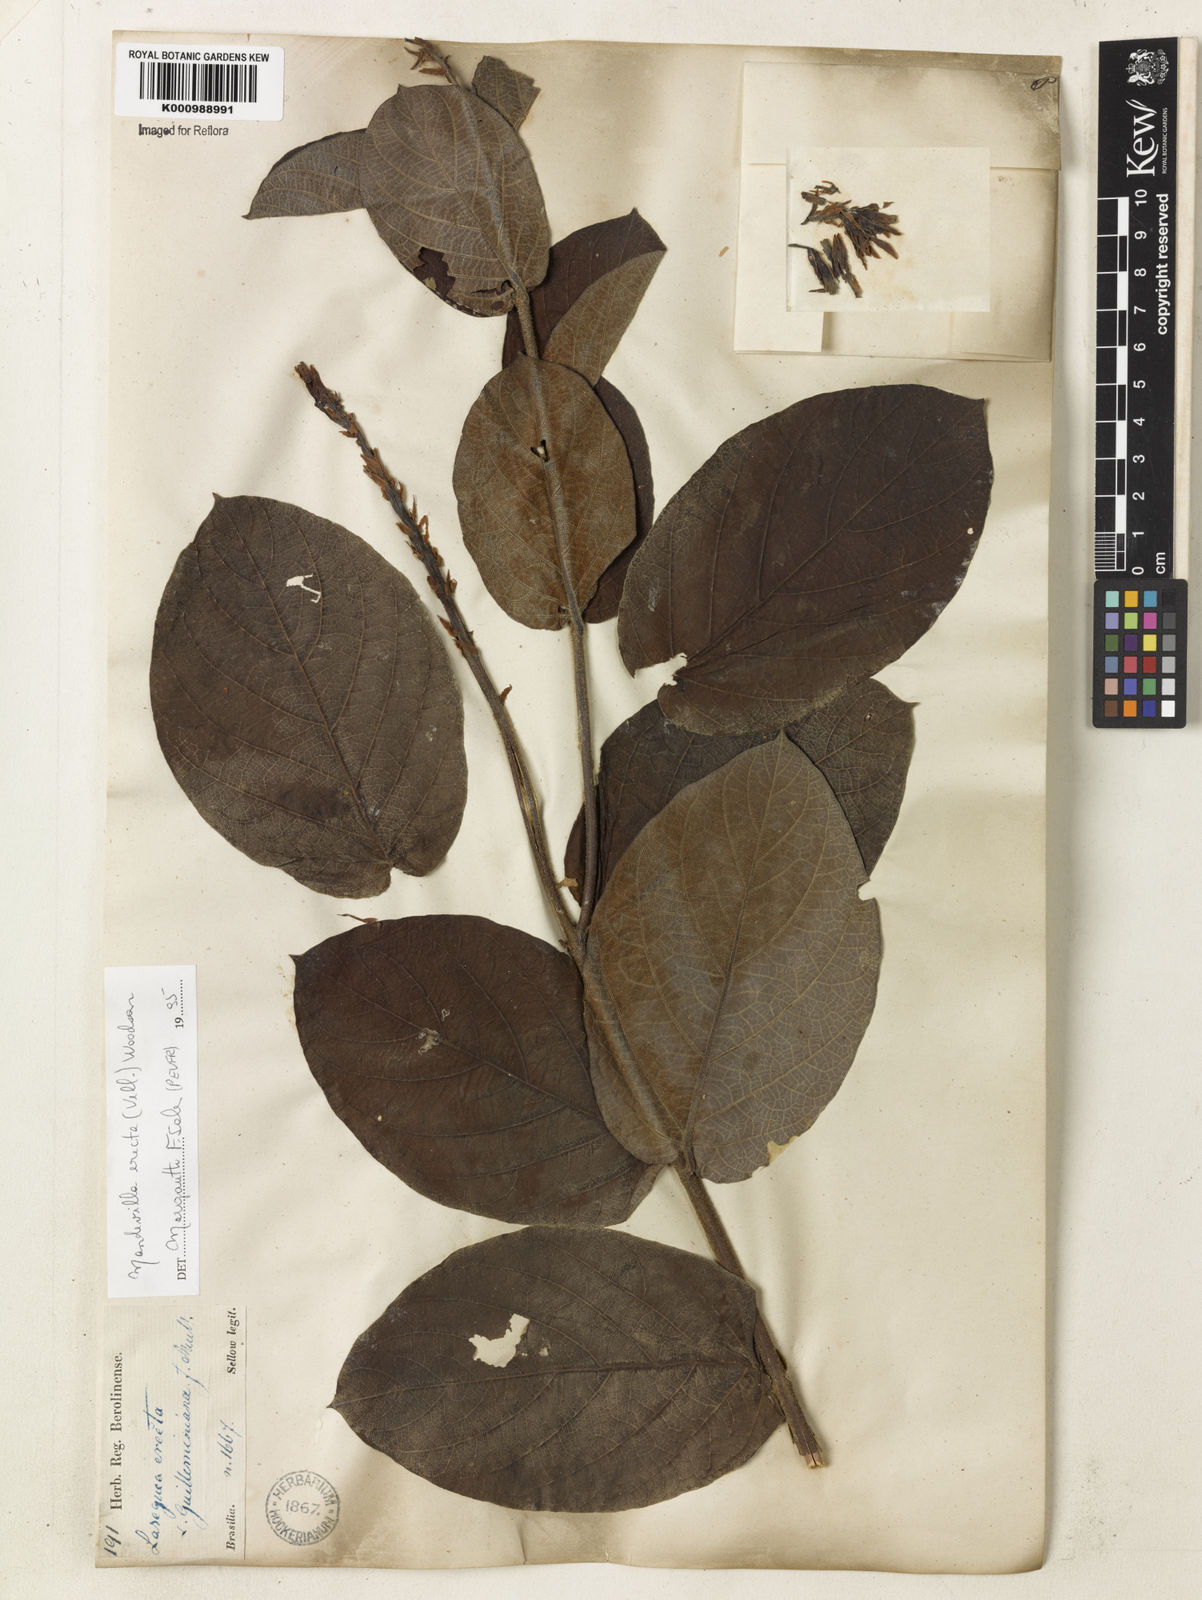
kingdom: Plantae
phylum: Tracheophyta
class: Magnoliopsida
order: Gentianales
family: Apocynaceae
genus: Mandevilla
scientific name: Mandevilla emarginata
